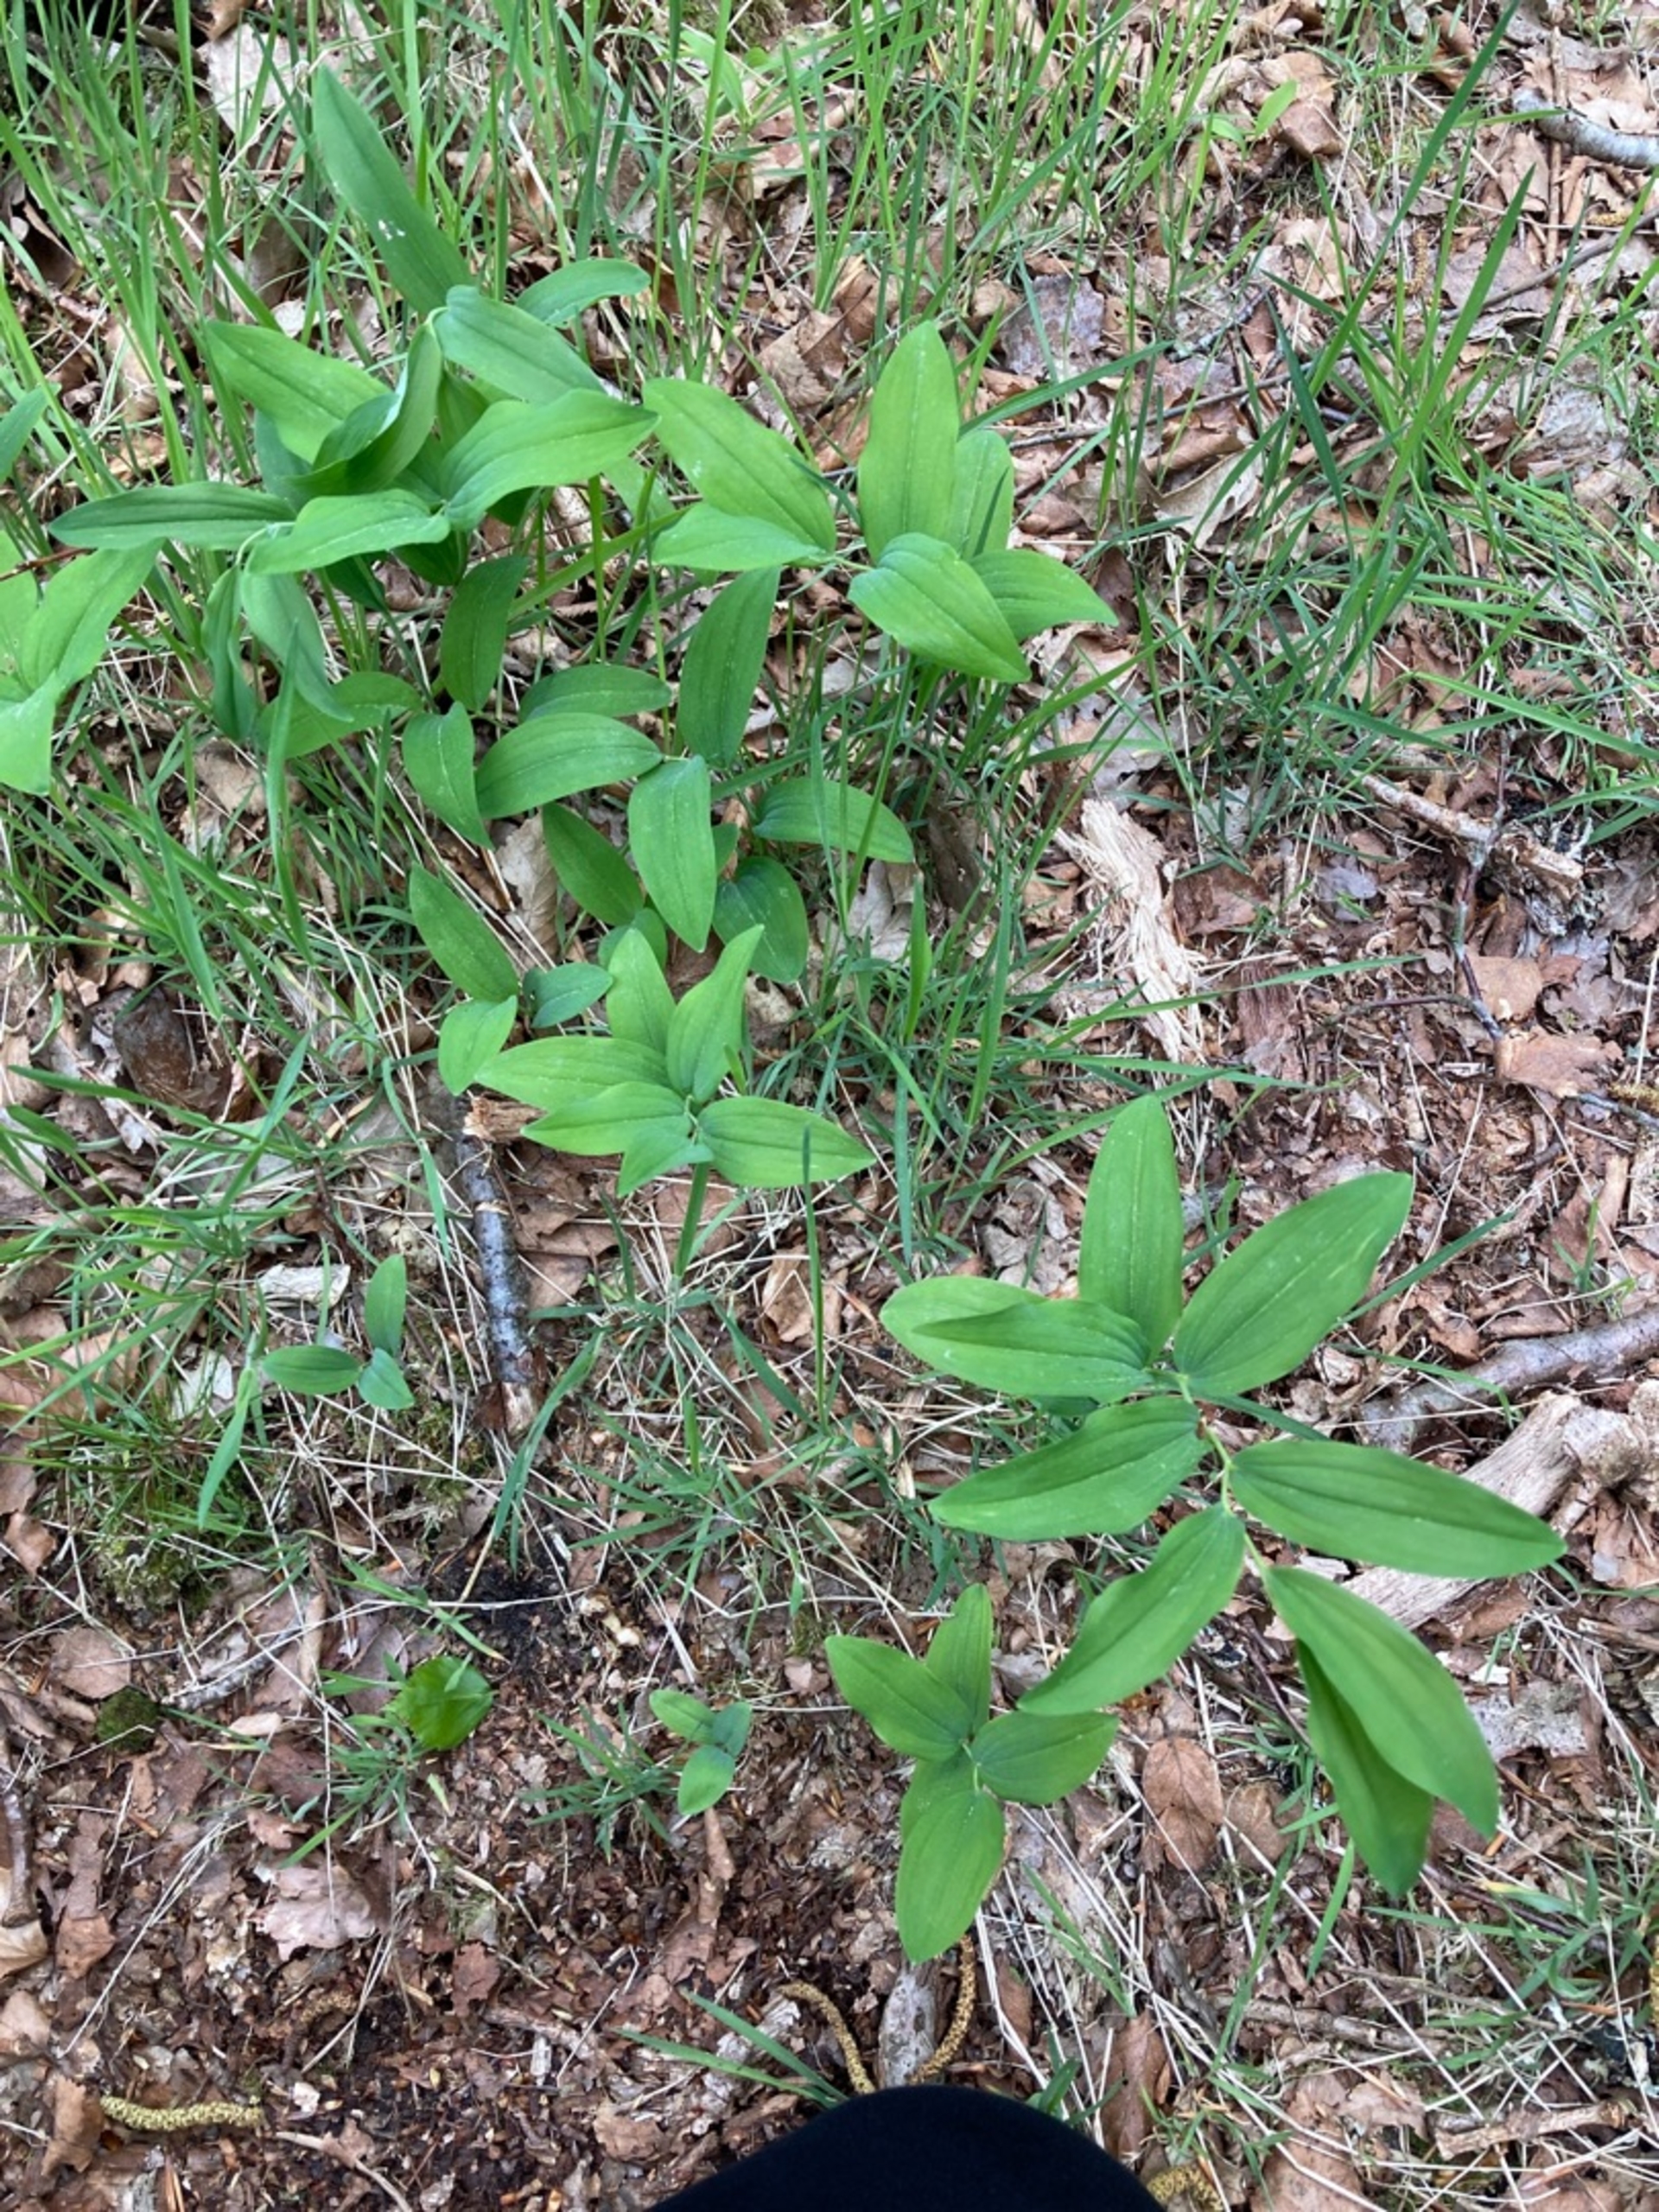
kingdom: Plantae
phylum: Tracheophyta
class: Liliopsida
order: Asparagales
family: Asparagaceae
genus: Polygonatum
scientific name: Polygonatum multiflorum
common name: Stor konval
